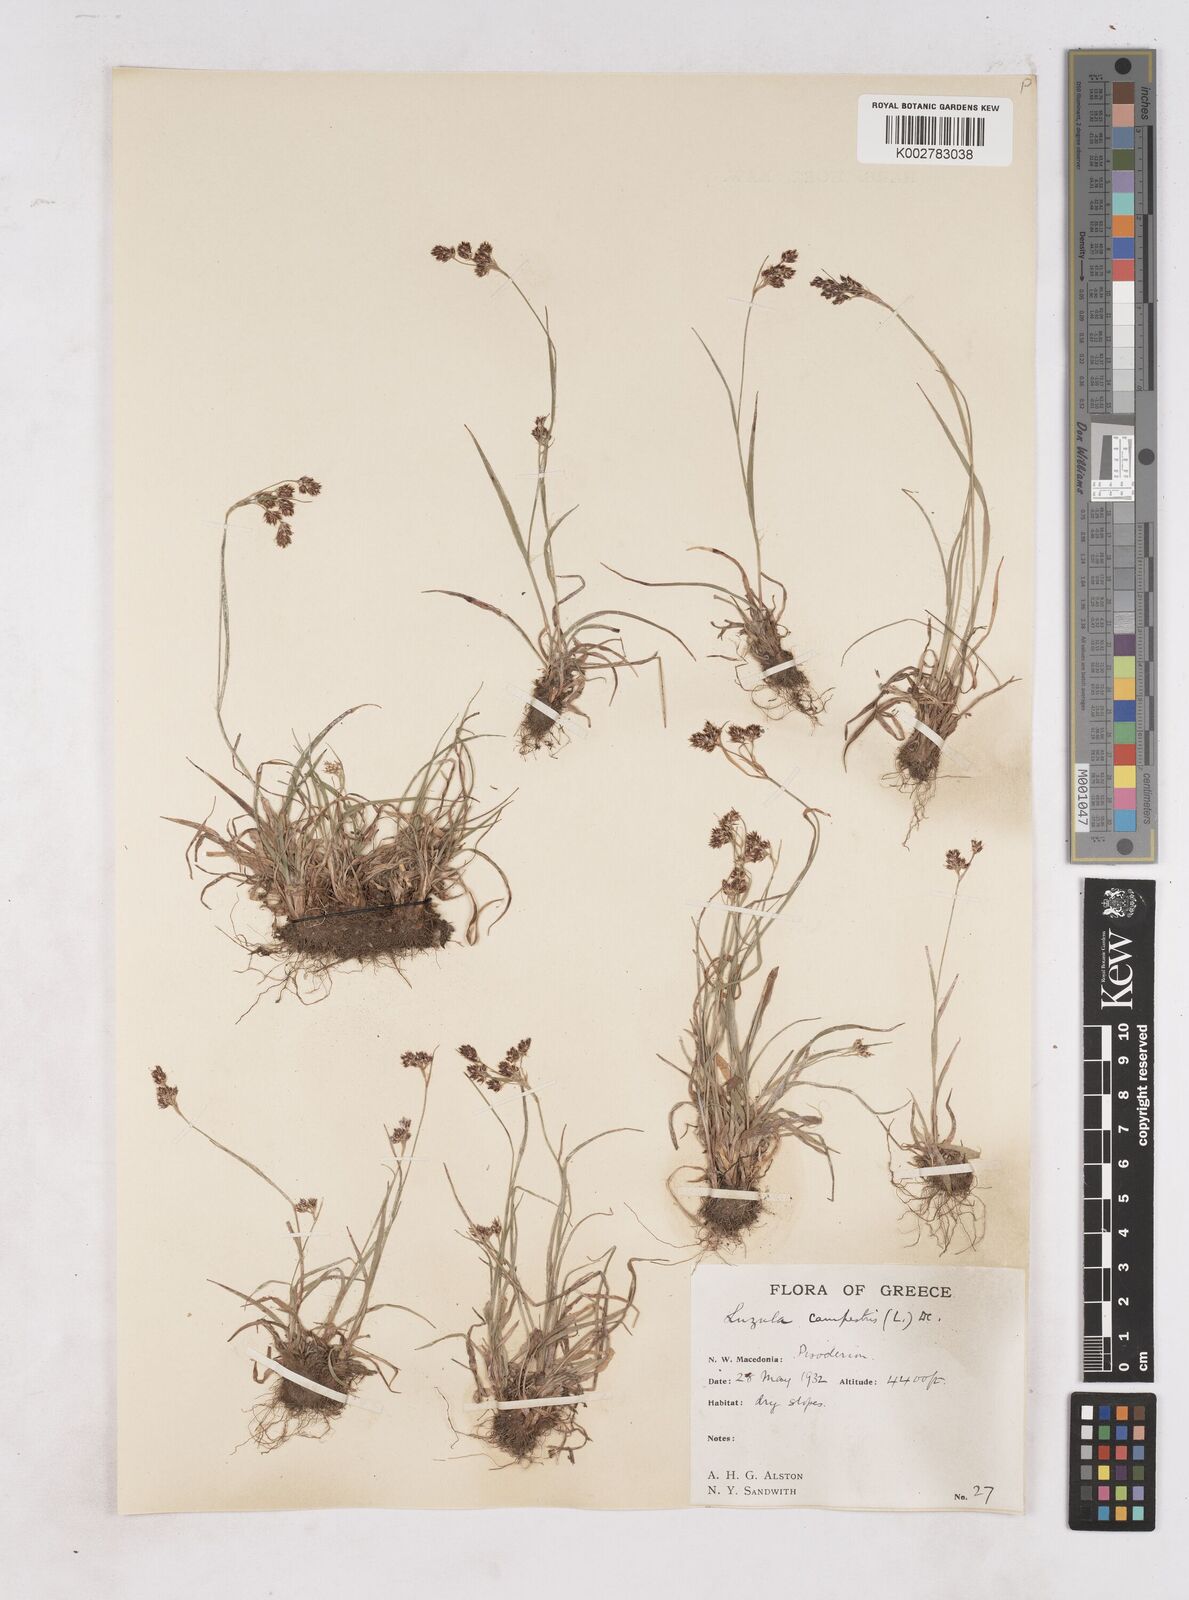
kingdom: Plantae
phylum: Tracheophyta
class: Liliopsida
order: Poales
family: Juncaceae
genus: Luzula
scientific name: Luzula campestris
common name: Field wood-rush
